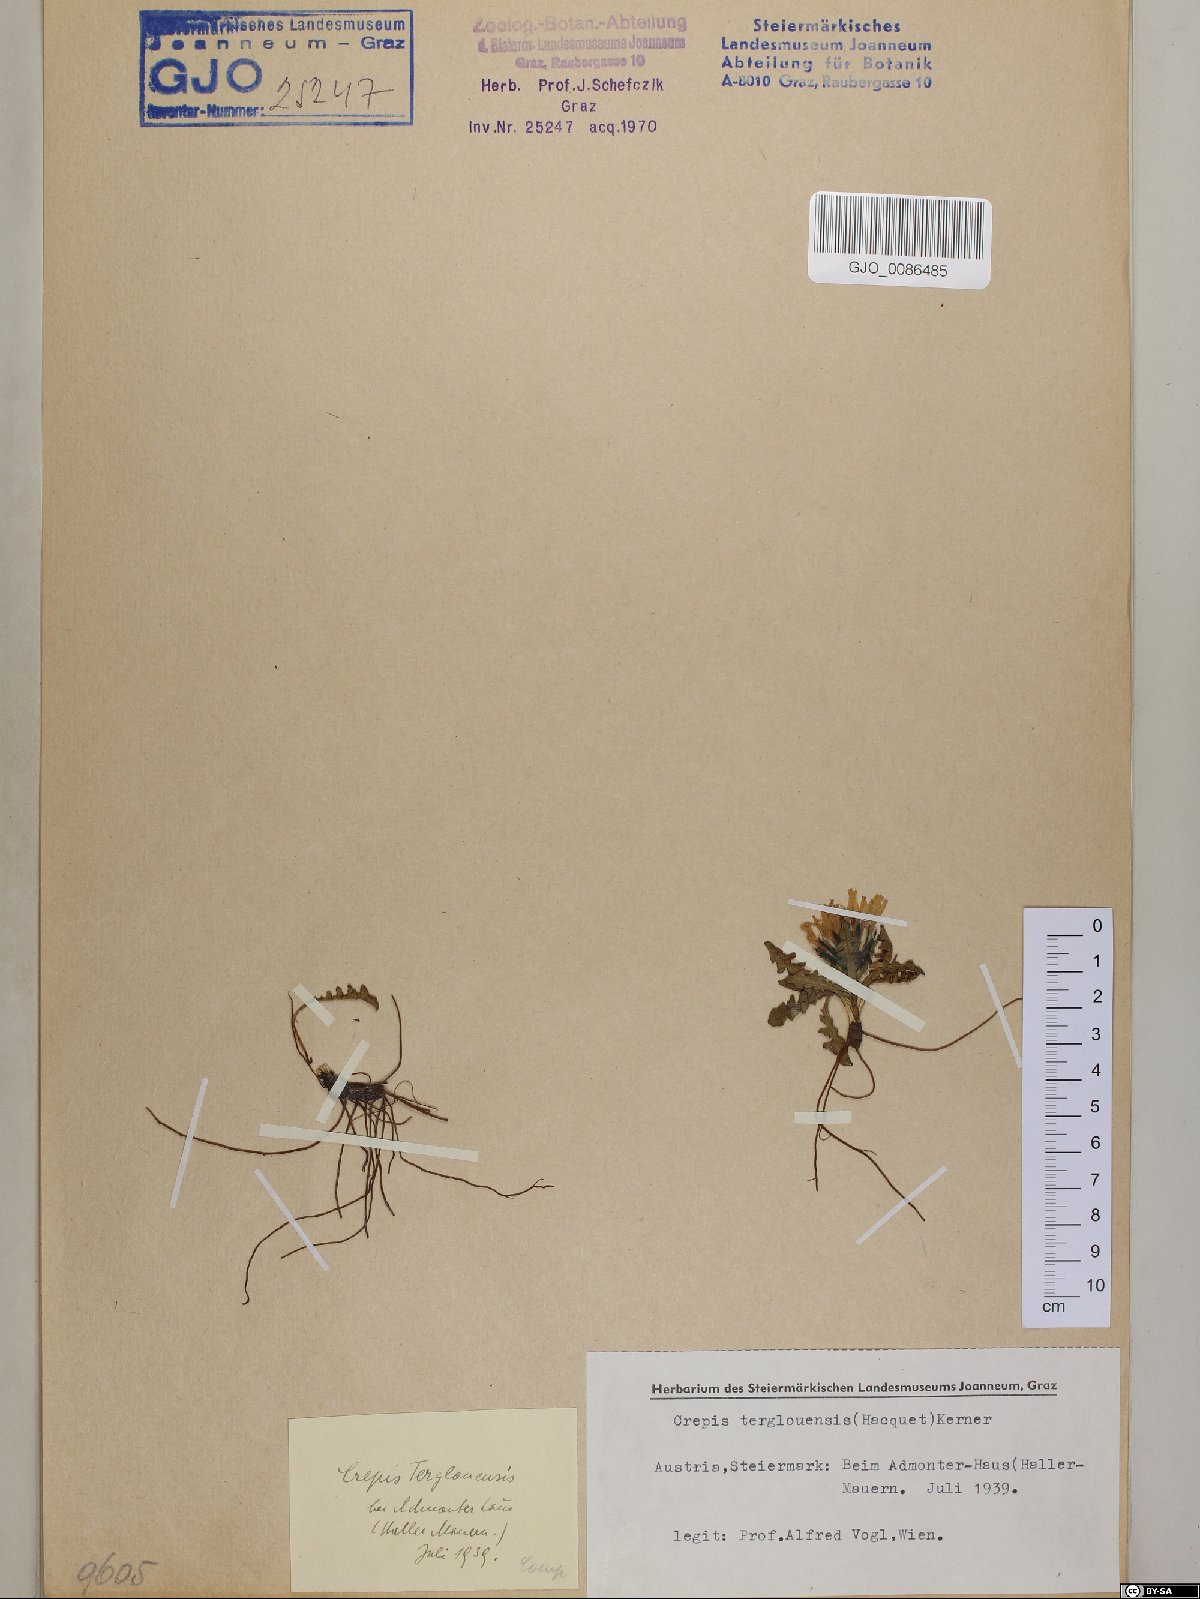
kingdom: Plantae
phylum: Tracheophyta
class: Magnoliopsida
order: Asterales
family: Asteraceae
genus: Crepis
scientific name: Crepis terglouensis
